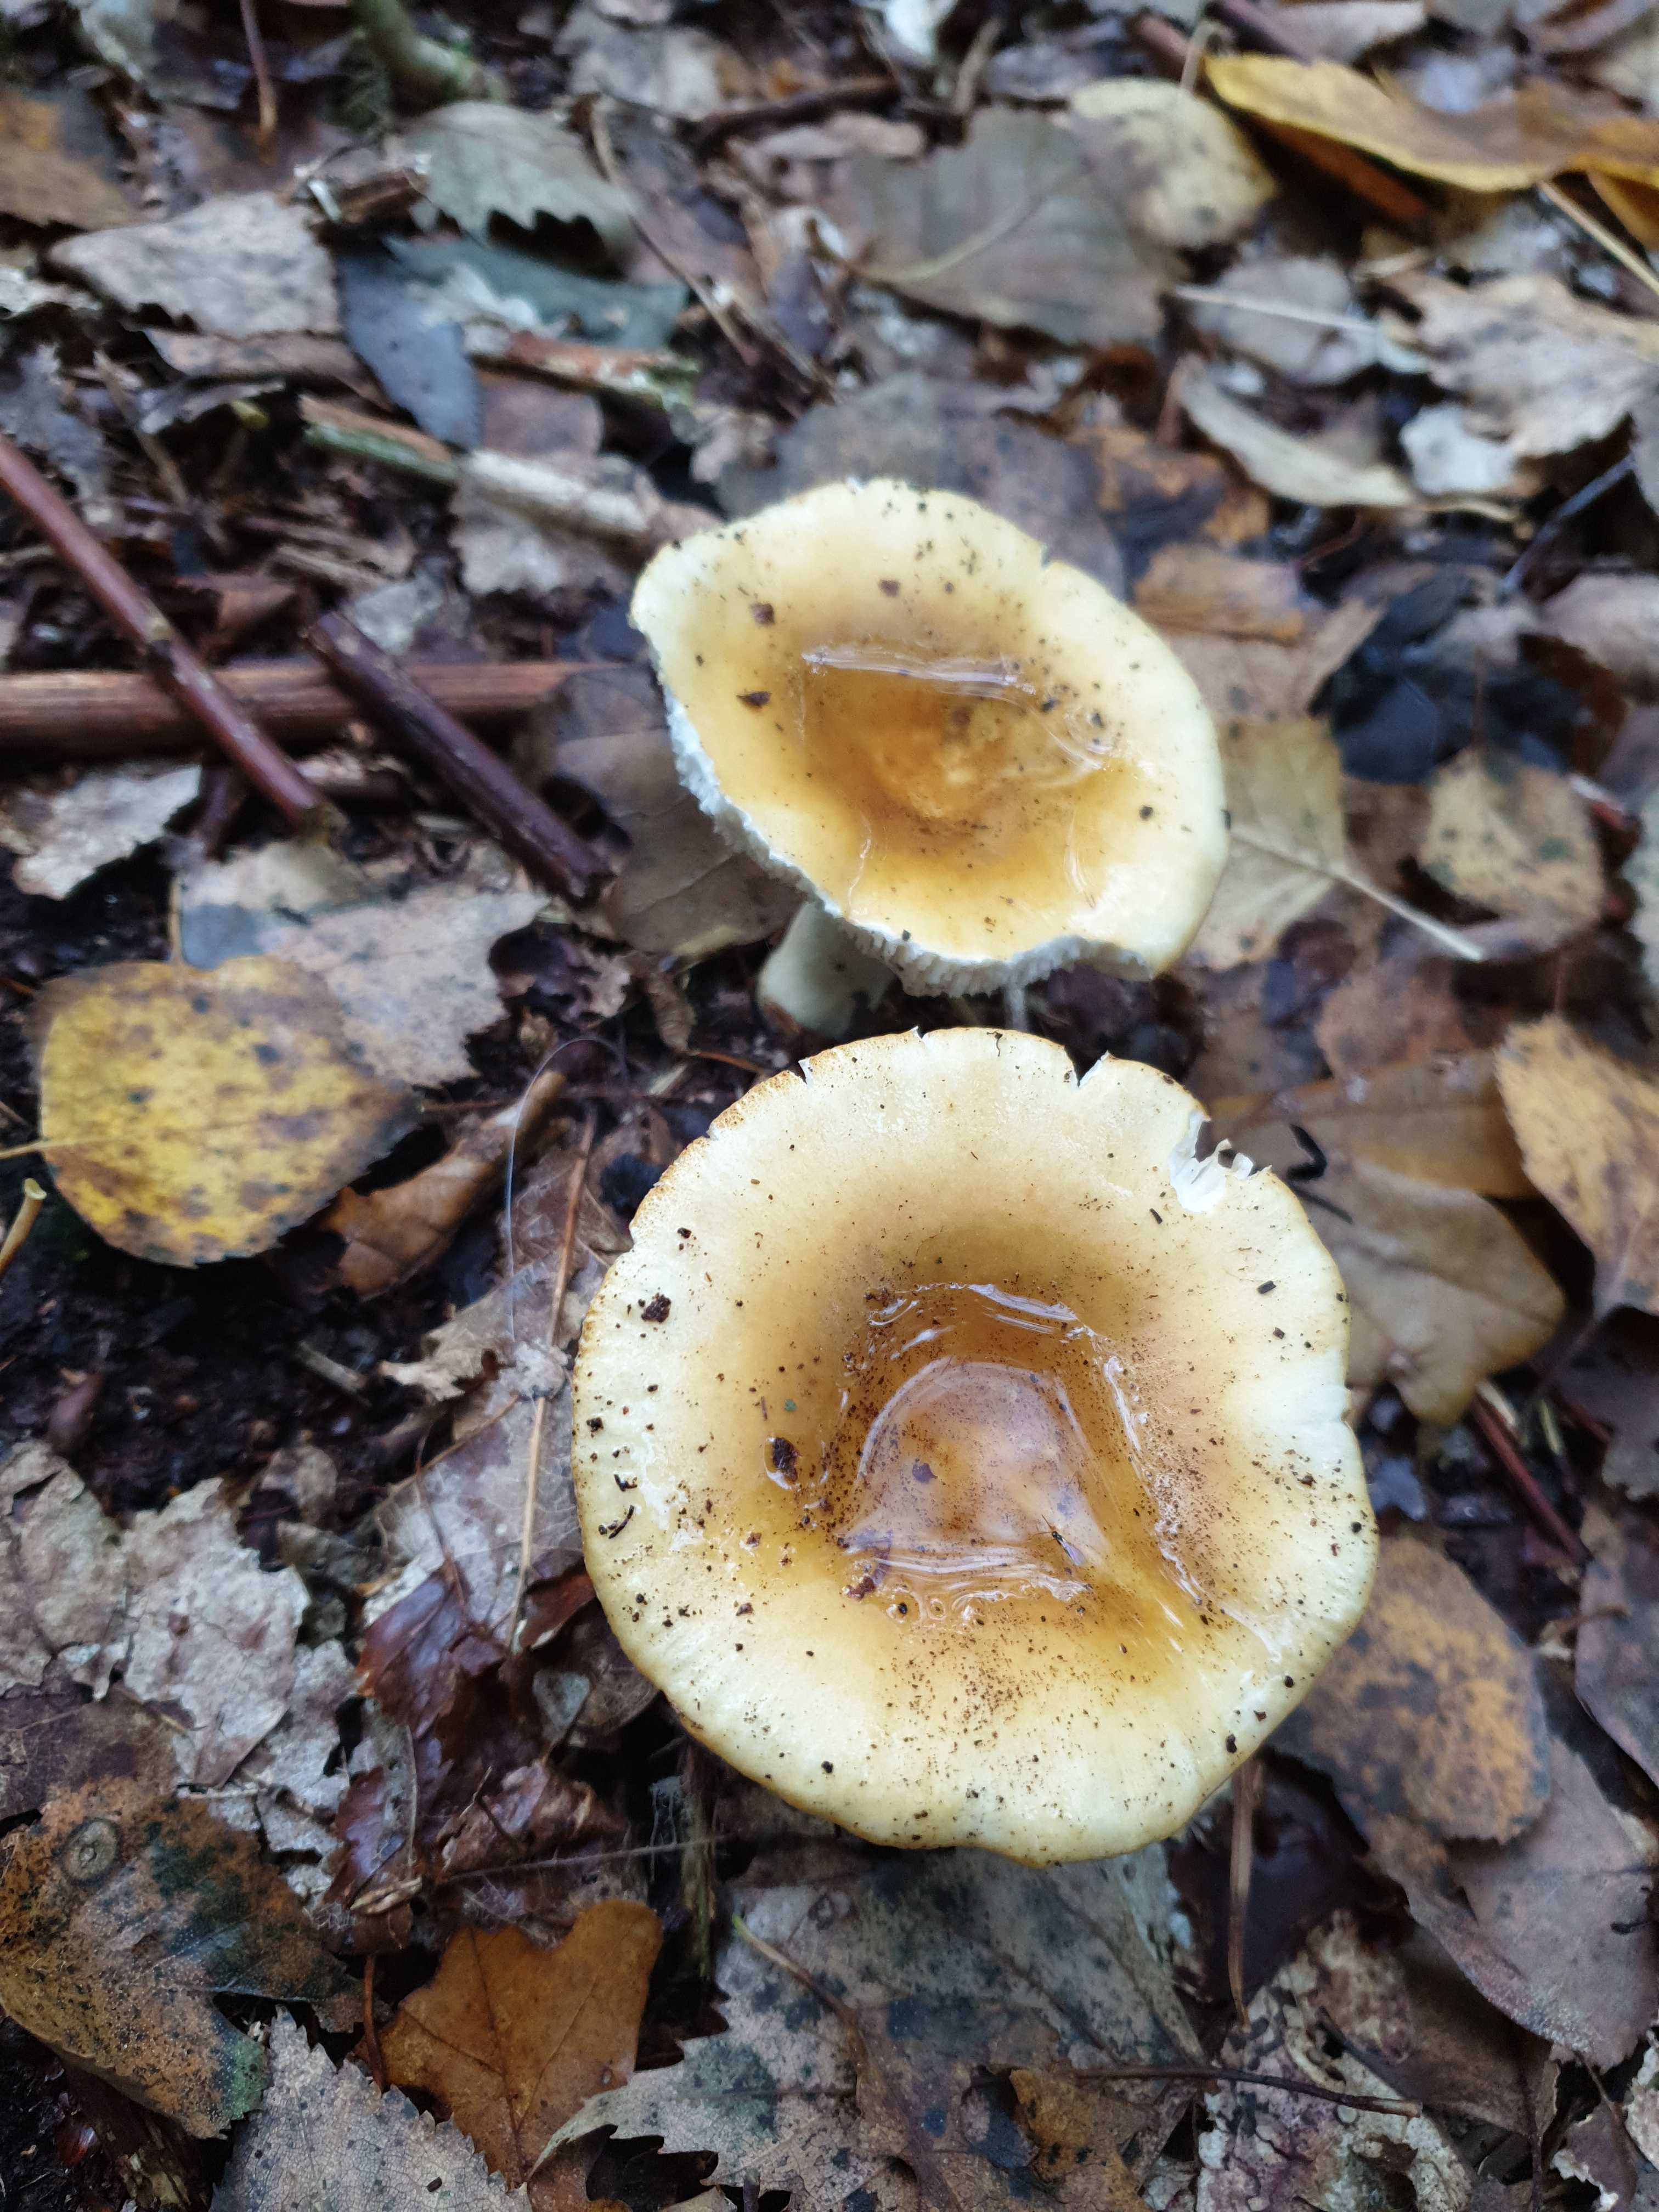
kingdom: Fungi
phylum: Basidiomycota
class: Agaricomycetes
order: Russulales
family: Russulaceae
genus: Russula
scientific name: Russula ochroleuca
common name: okkergul skørhat
